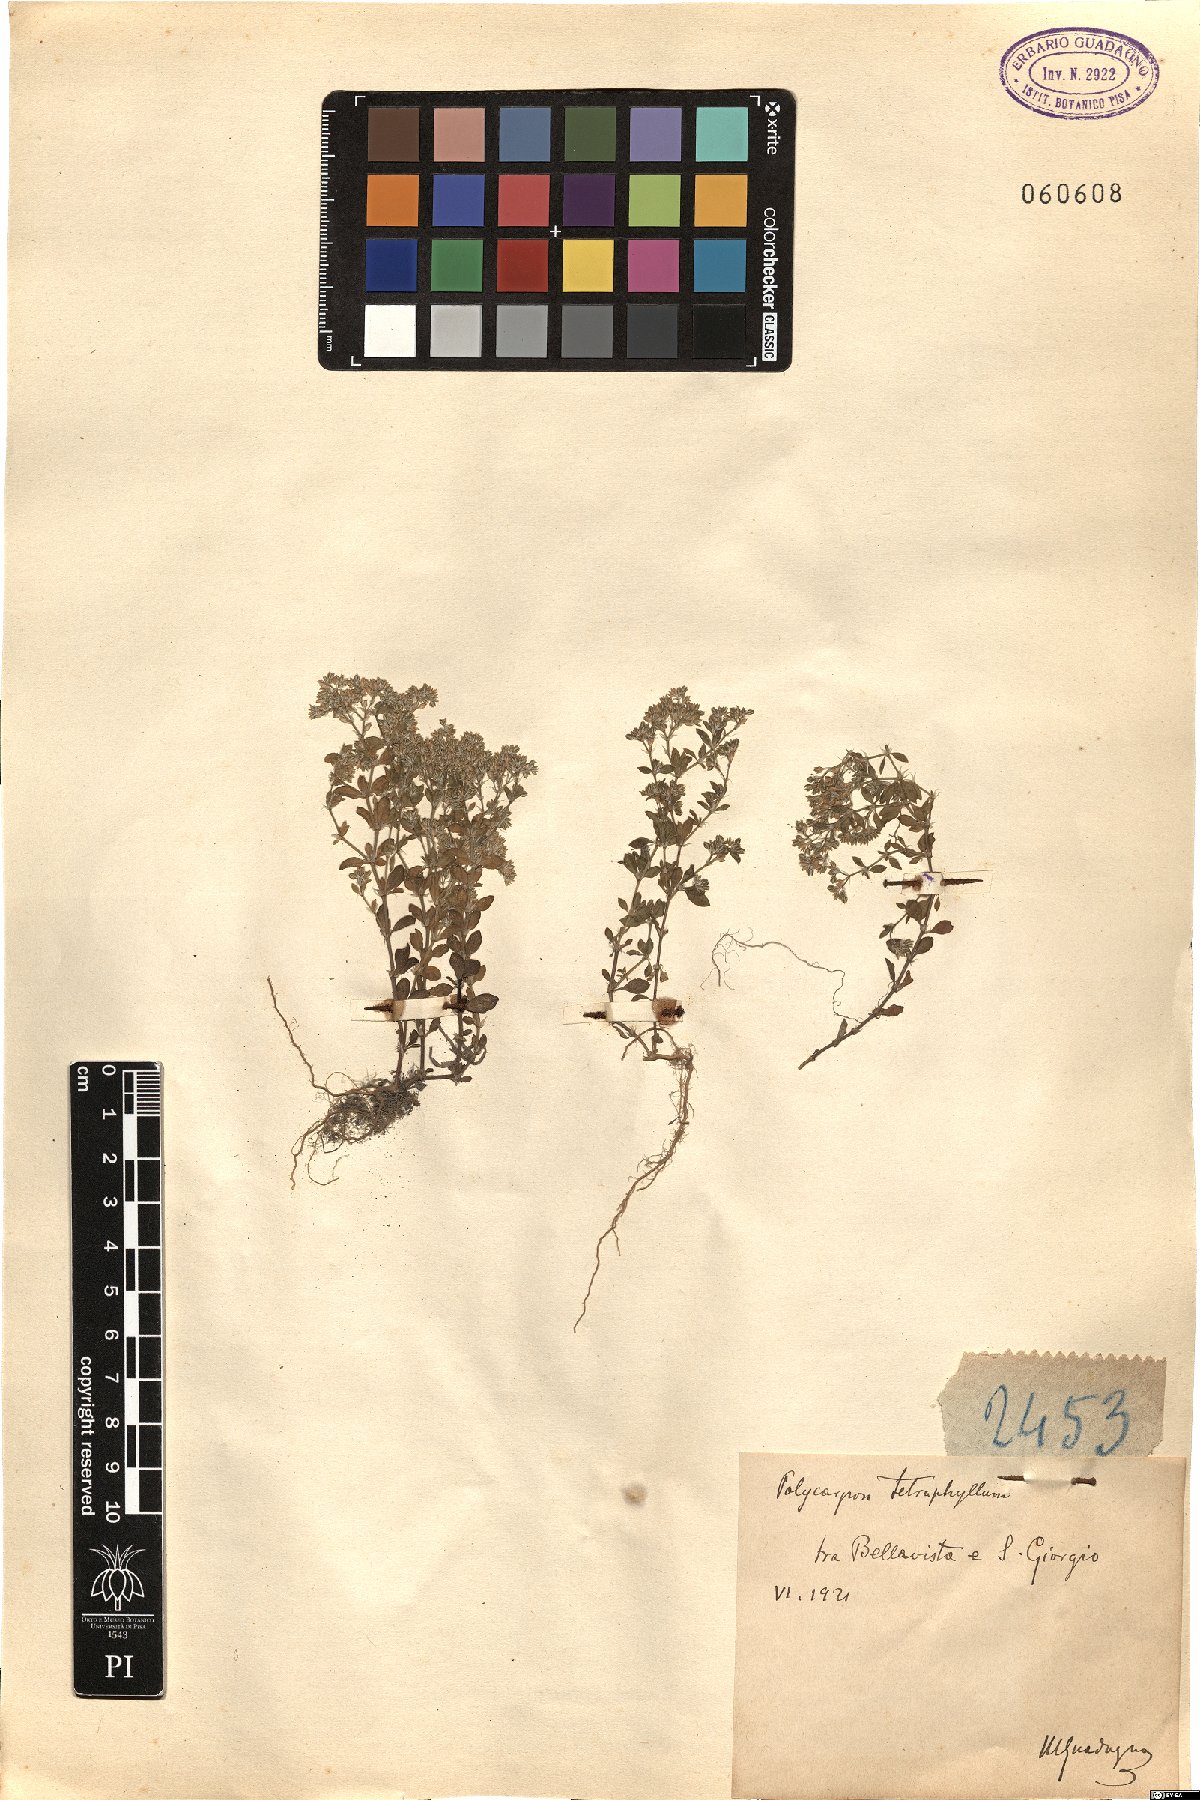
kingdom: Plantae
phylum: Tracheophyta
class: Magnoliopsida
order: Caryophyllales
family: Caryophyllaceae
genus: Polycarpon
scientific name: Polycarpon tetraphyllum
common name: Four-leaved all-seed
